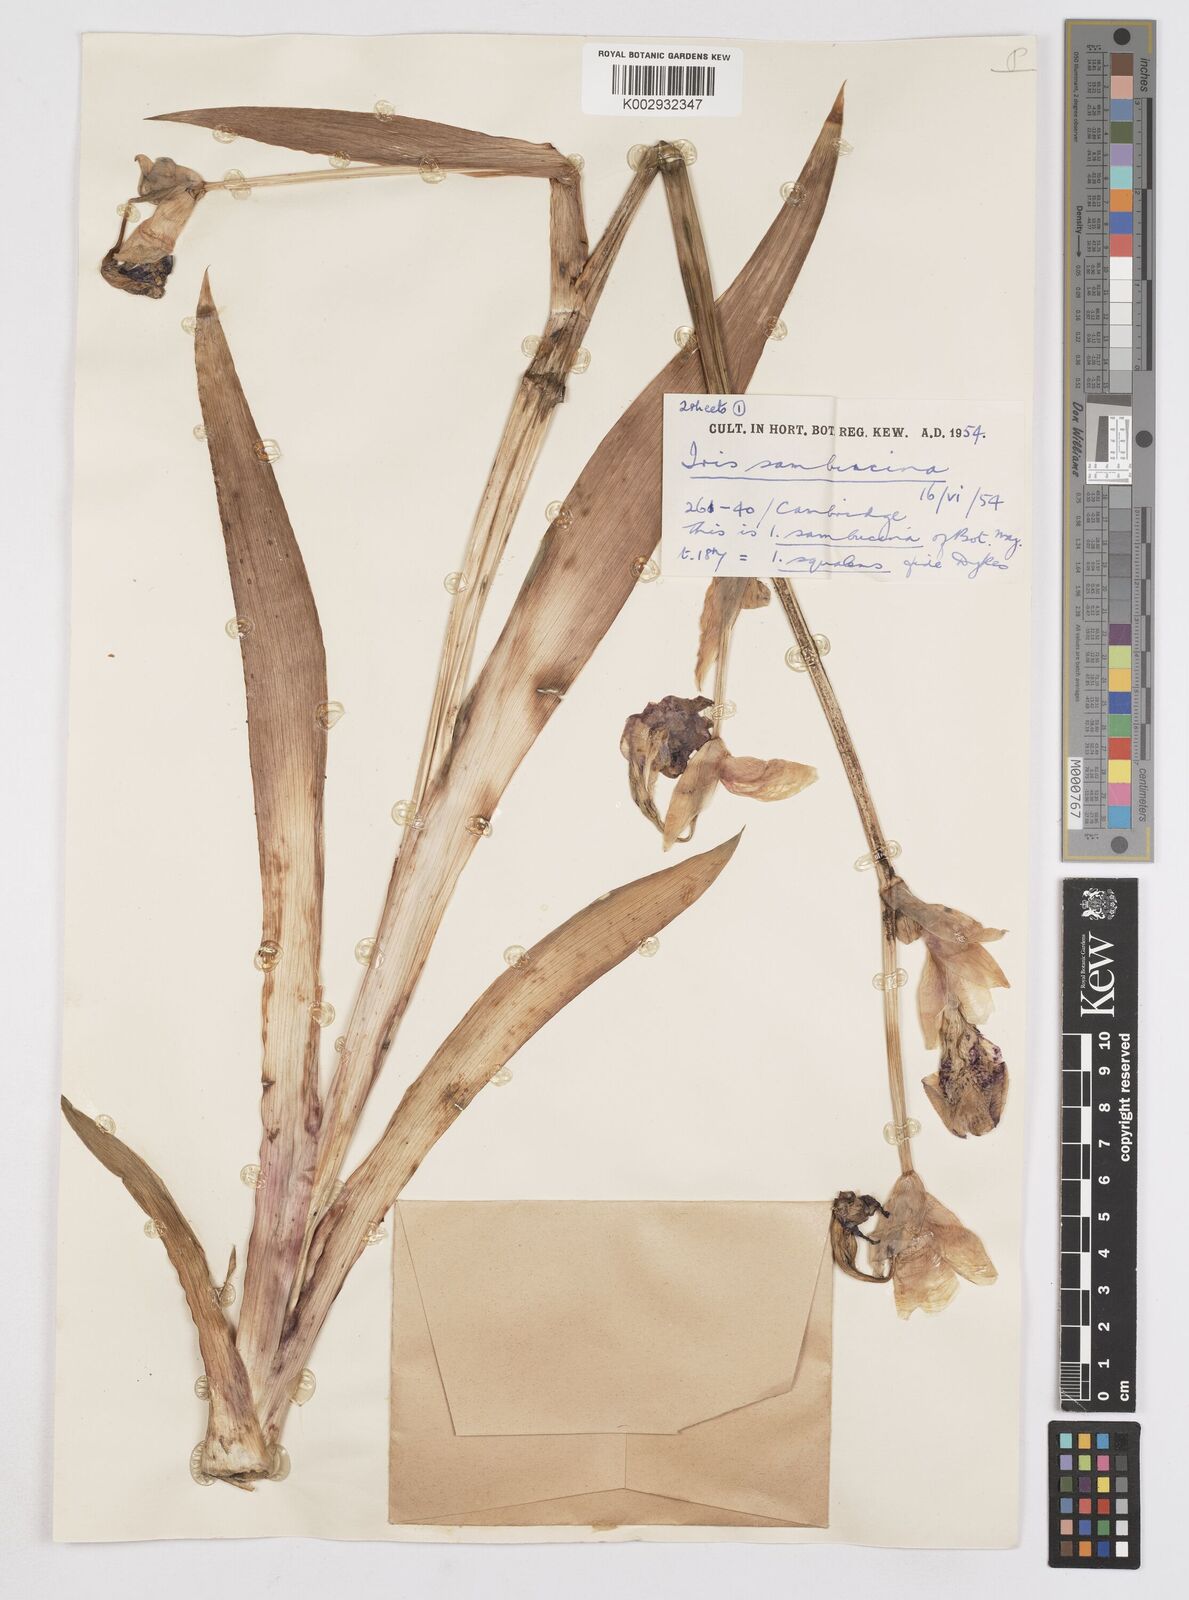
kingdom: Plantae
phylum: Tracheophyta
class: Liliopsida
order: Asparagales
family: Iridaceae
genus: Iris
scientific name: Iris germanica
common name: German iris
